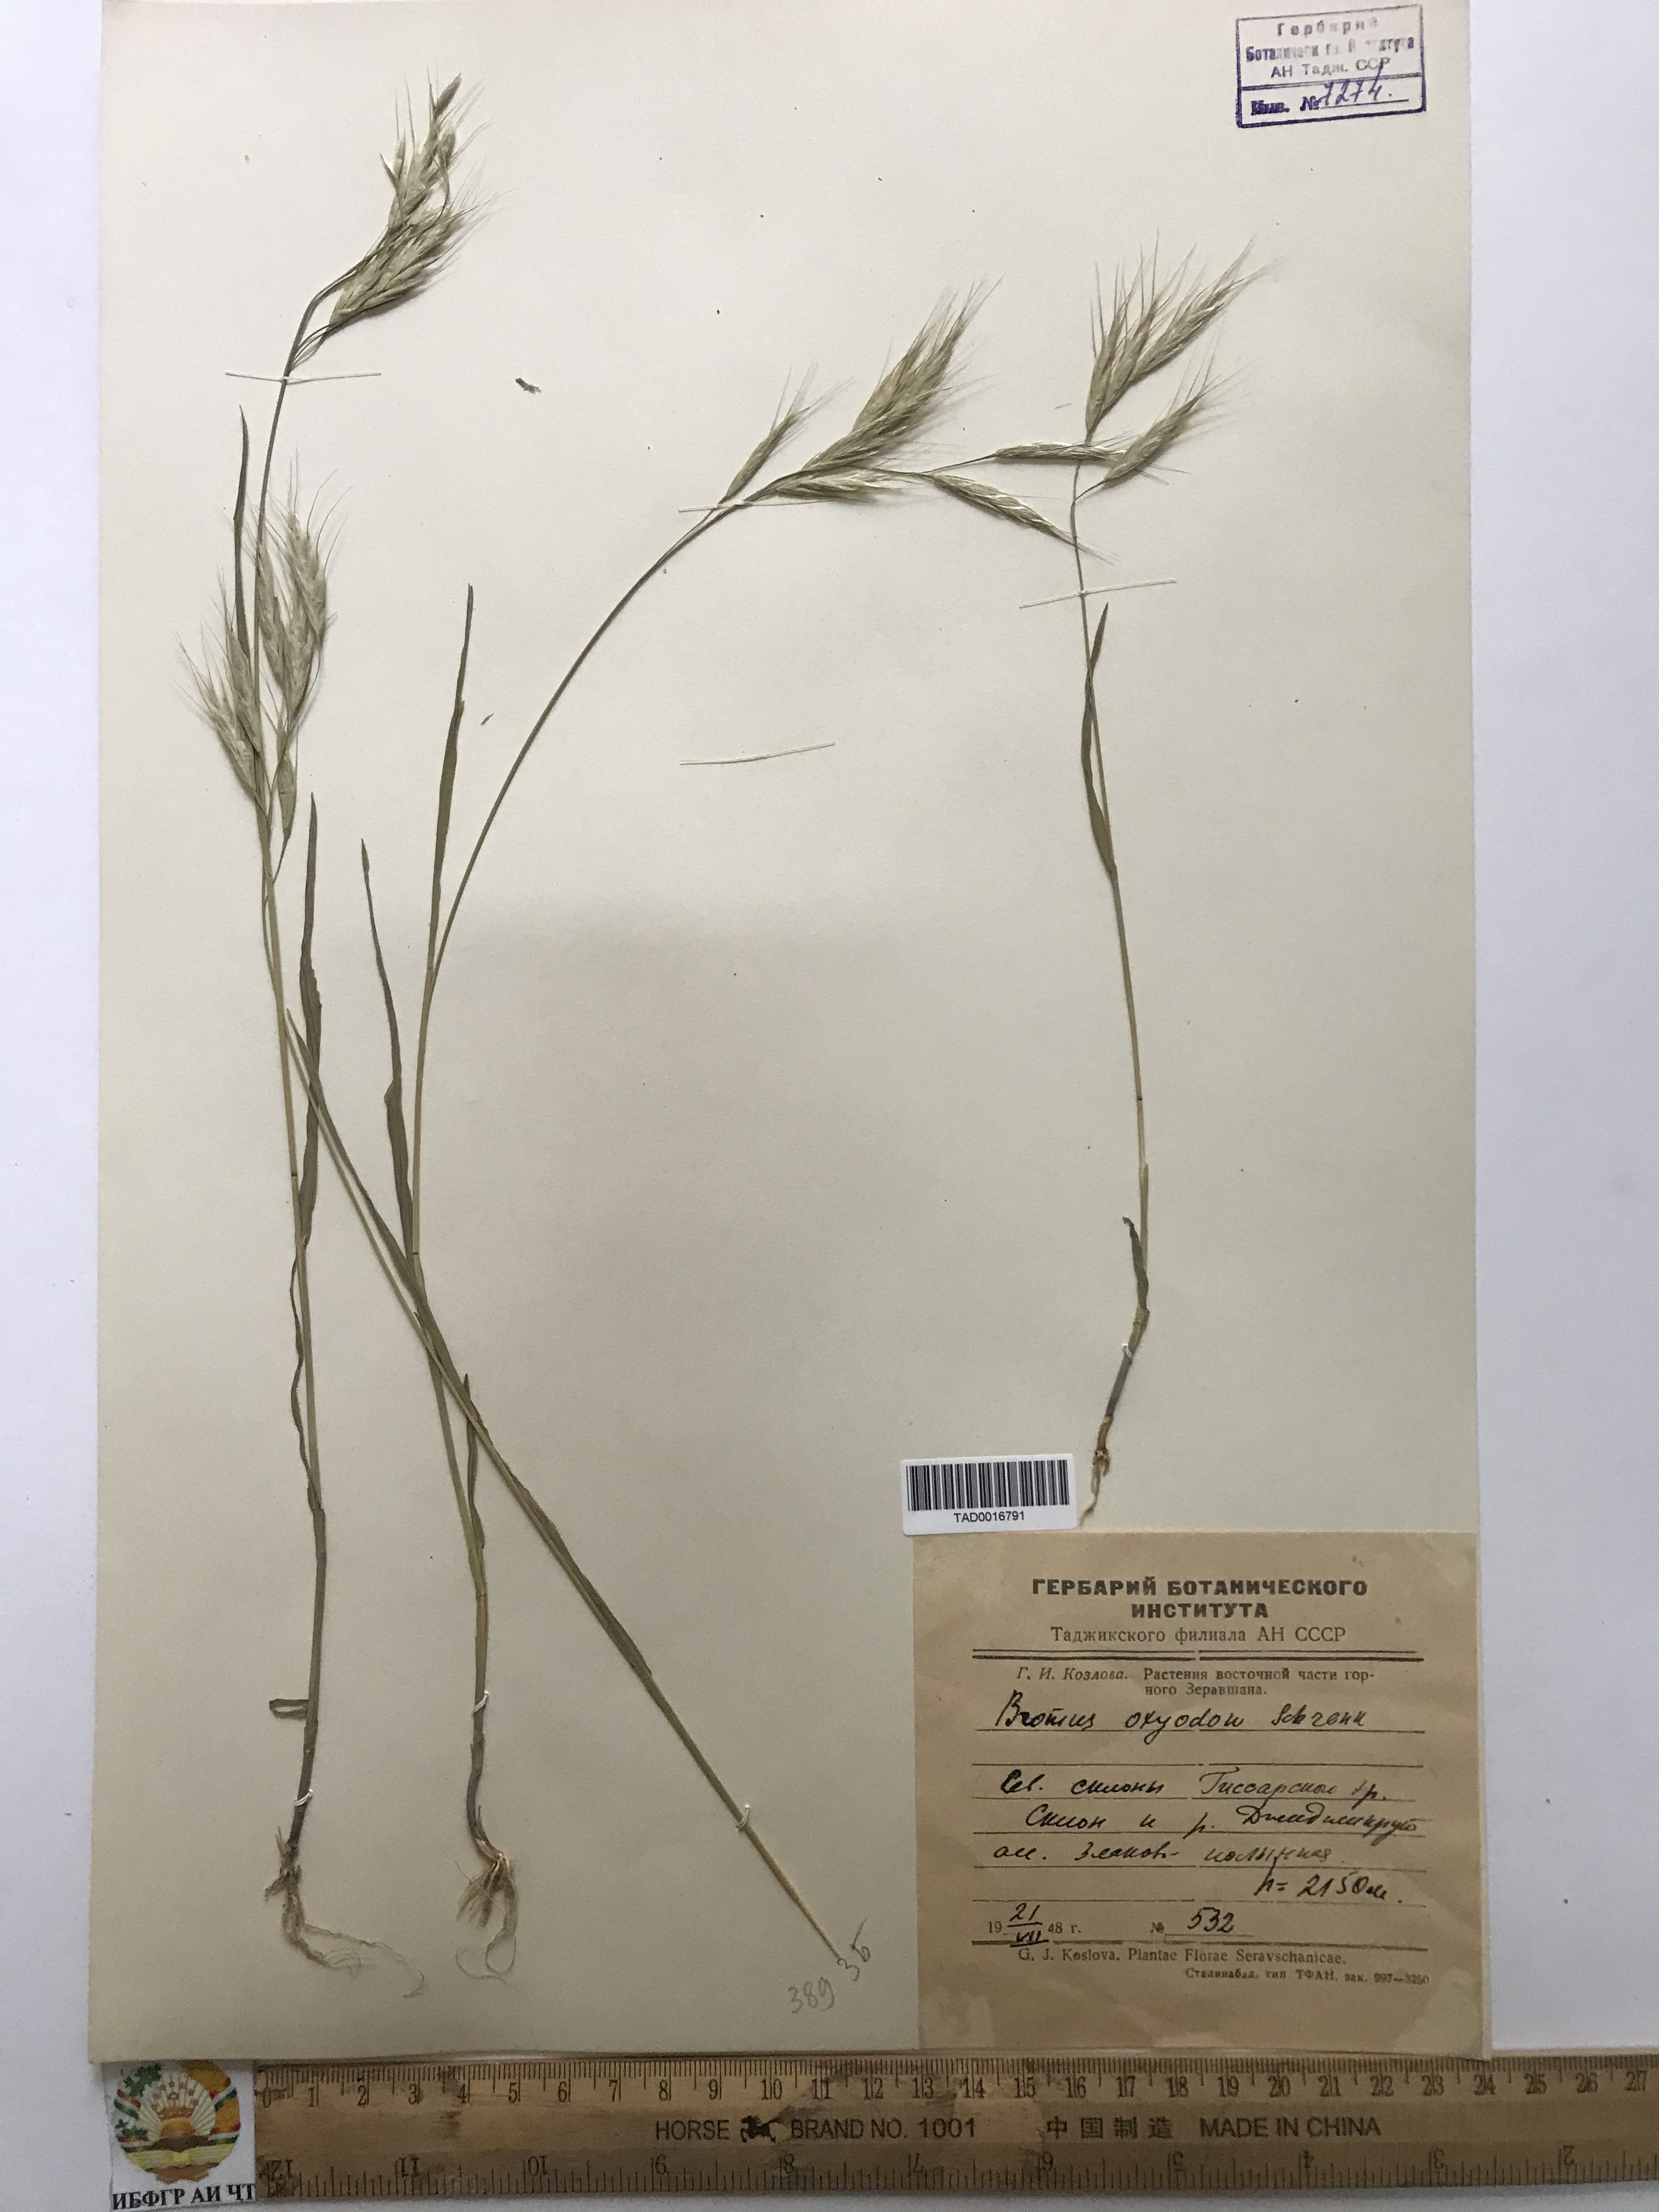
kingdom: Plantae
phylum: Tracheophyta
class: Liliopsida
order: Poales
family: Poaceae
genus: Bromus
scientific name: Bromus oxyodon
